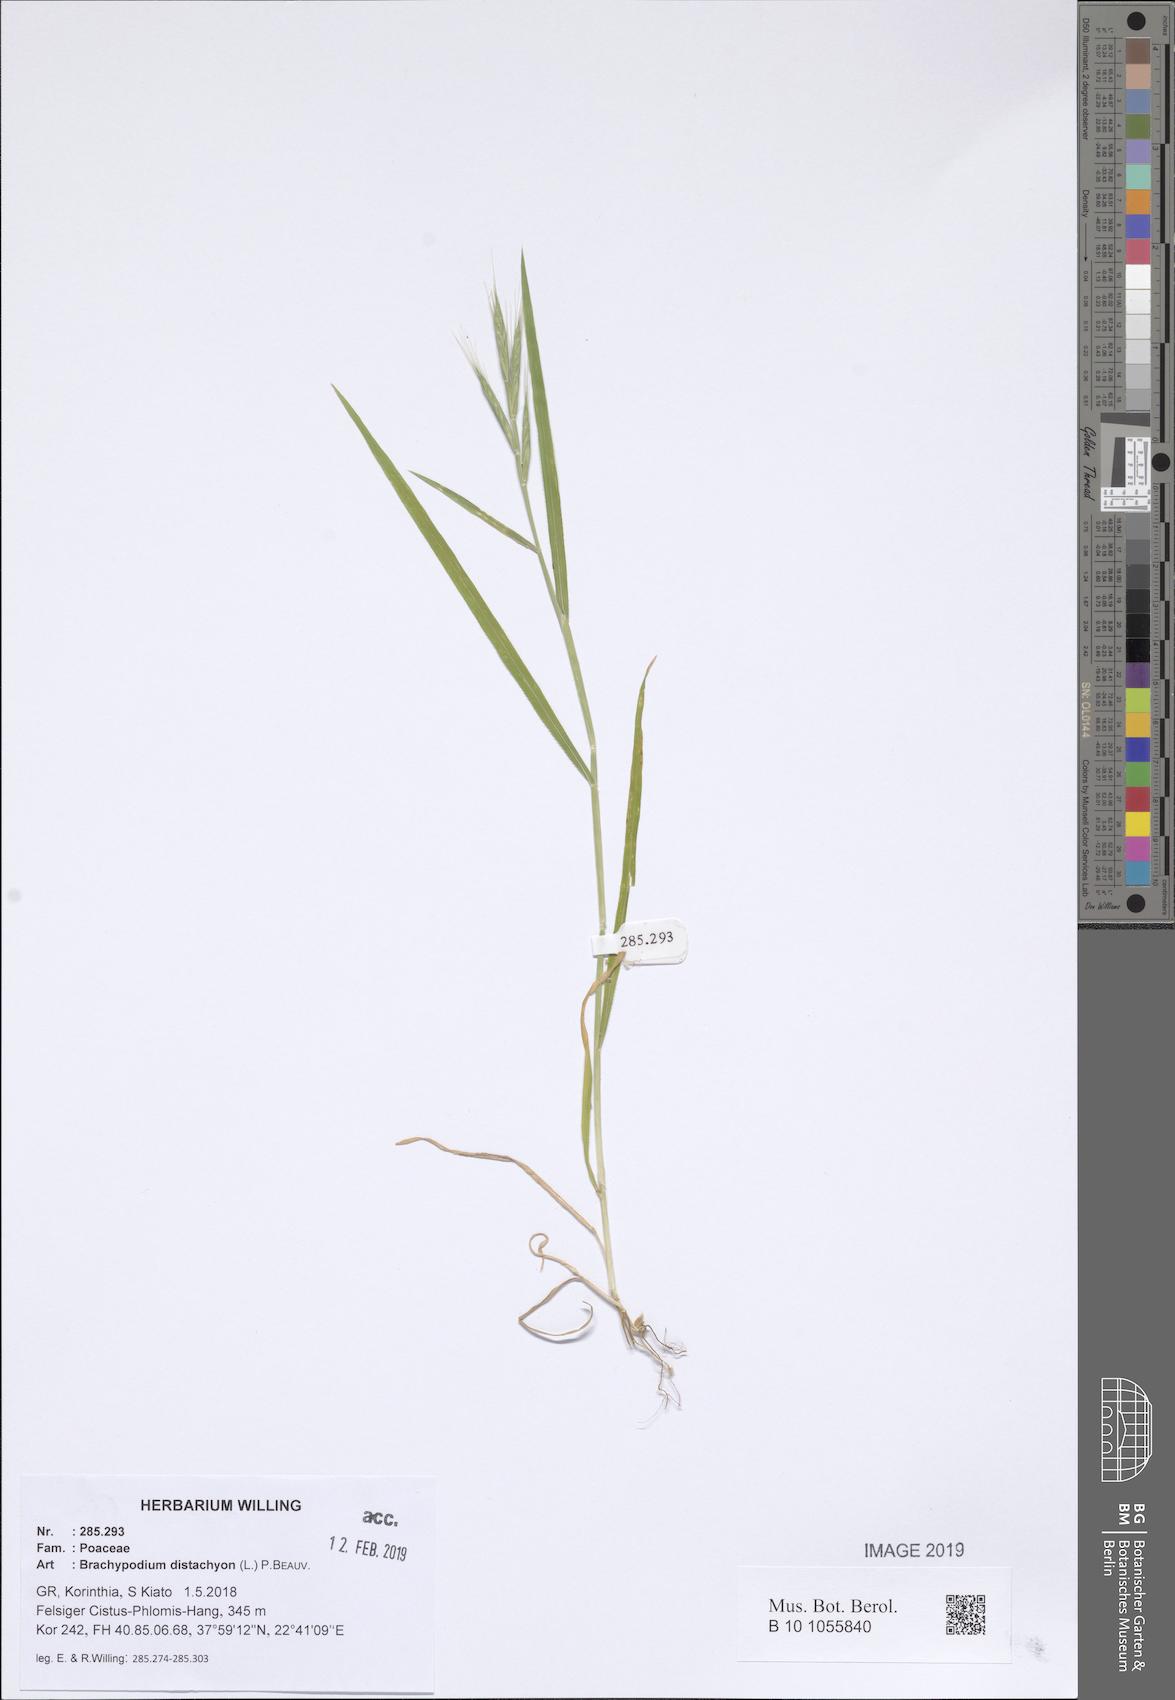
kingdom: Plantae
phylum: Tracheophyta
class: Liliopsida
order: Poales
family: Poaceae
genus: Brachypodium
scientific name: Brachypodium distachyon
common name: Stiff brome
